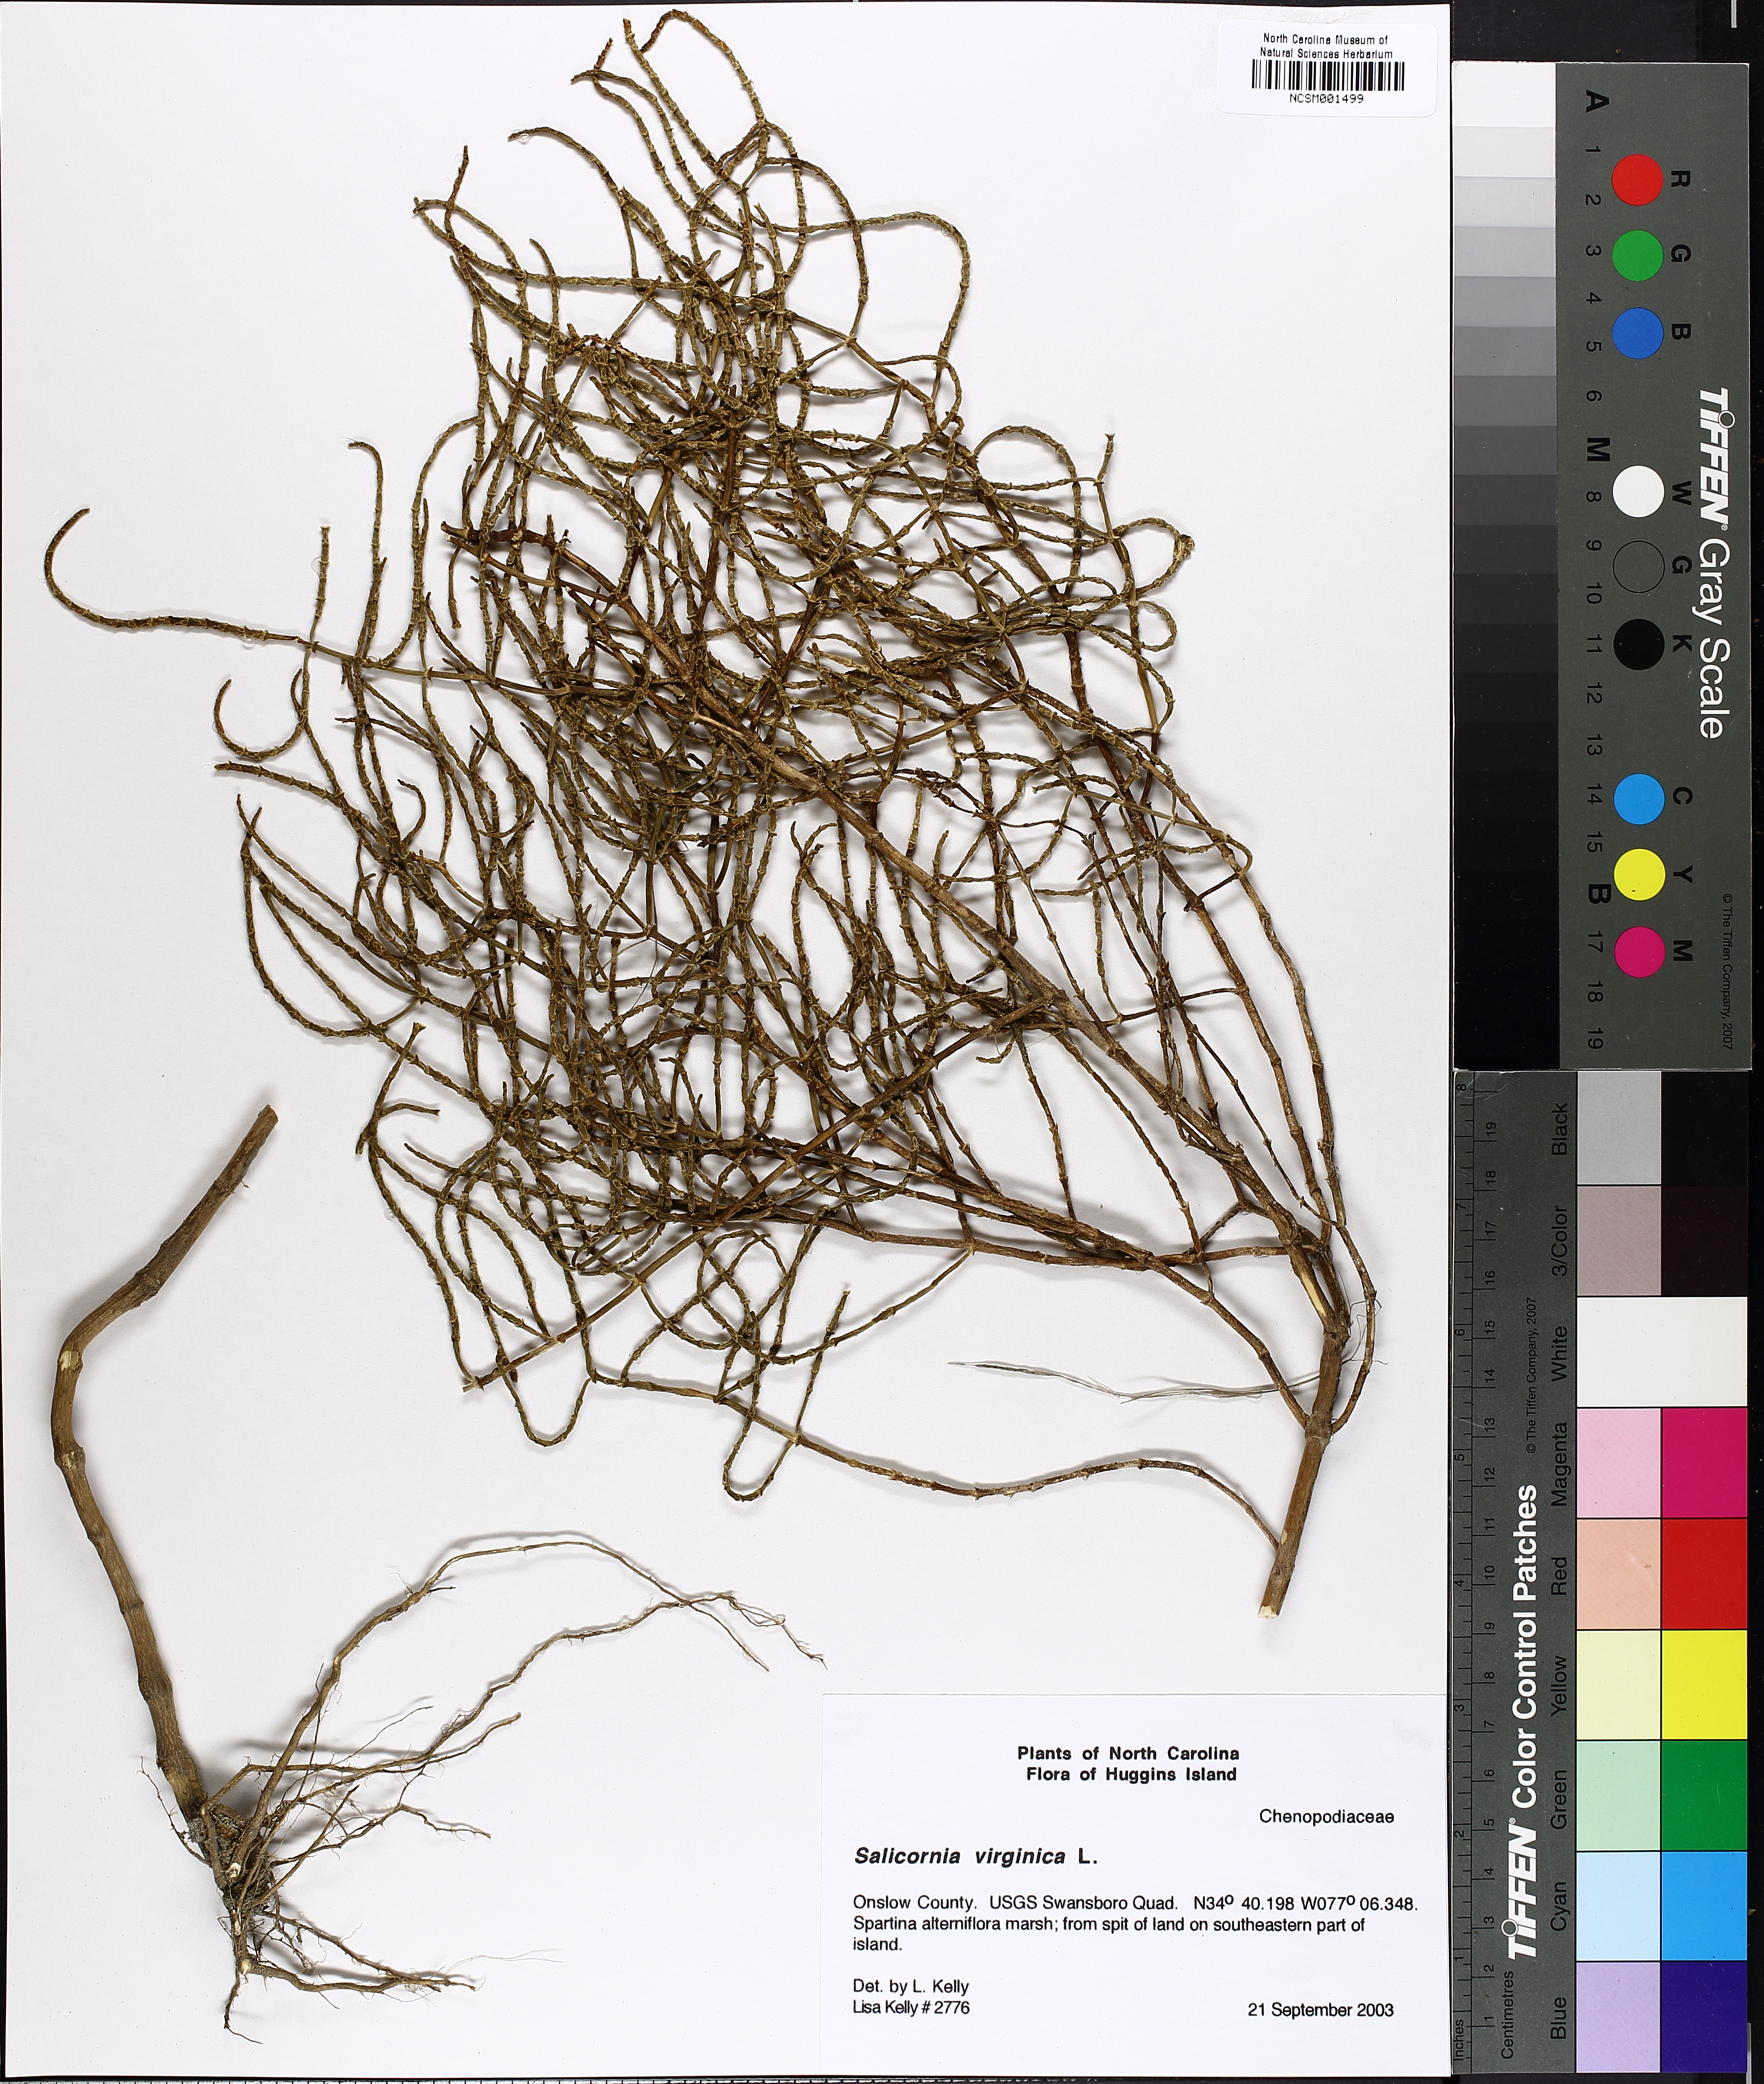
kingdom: Plantae
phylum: Tracheophyta
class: Magnoliopsida
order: Caryophyllales
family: Amaranthaceae
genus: Salicornia
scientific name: Salicornia virginica
